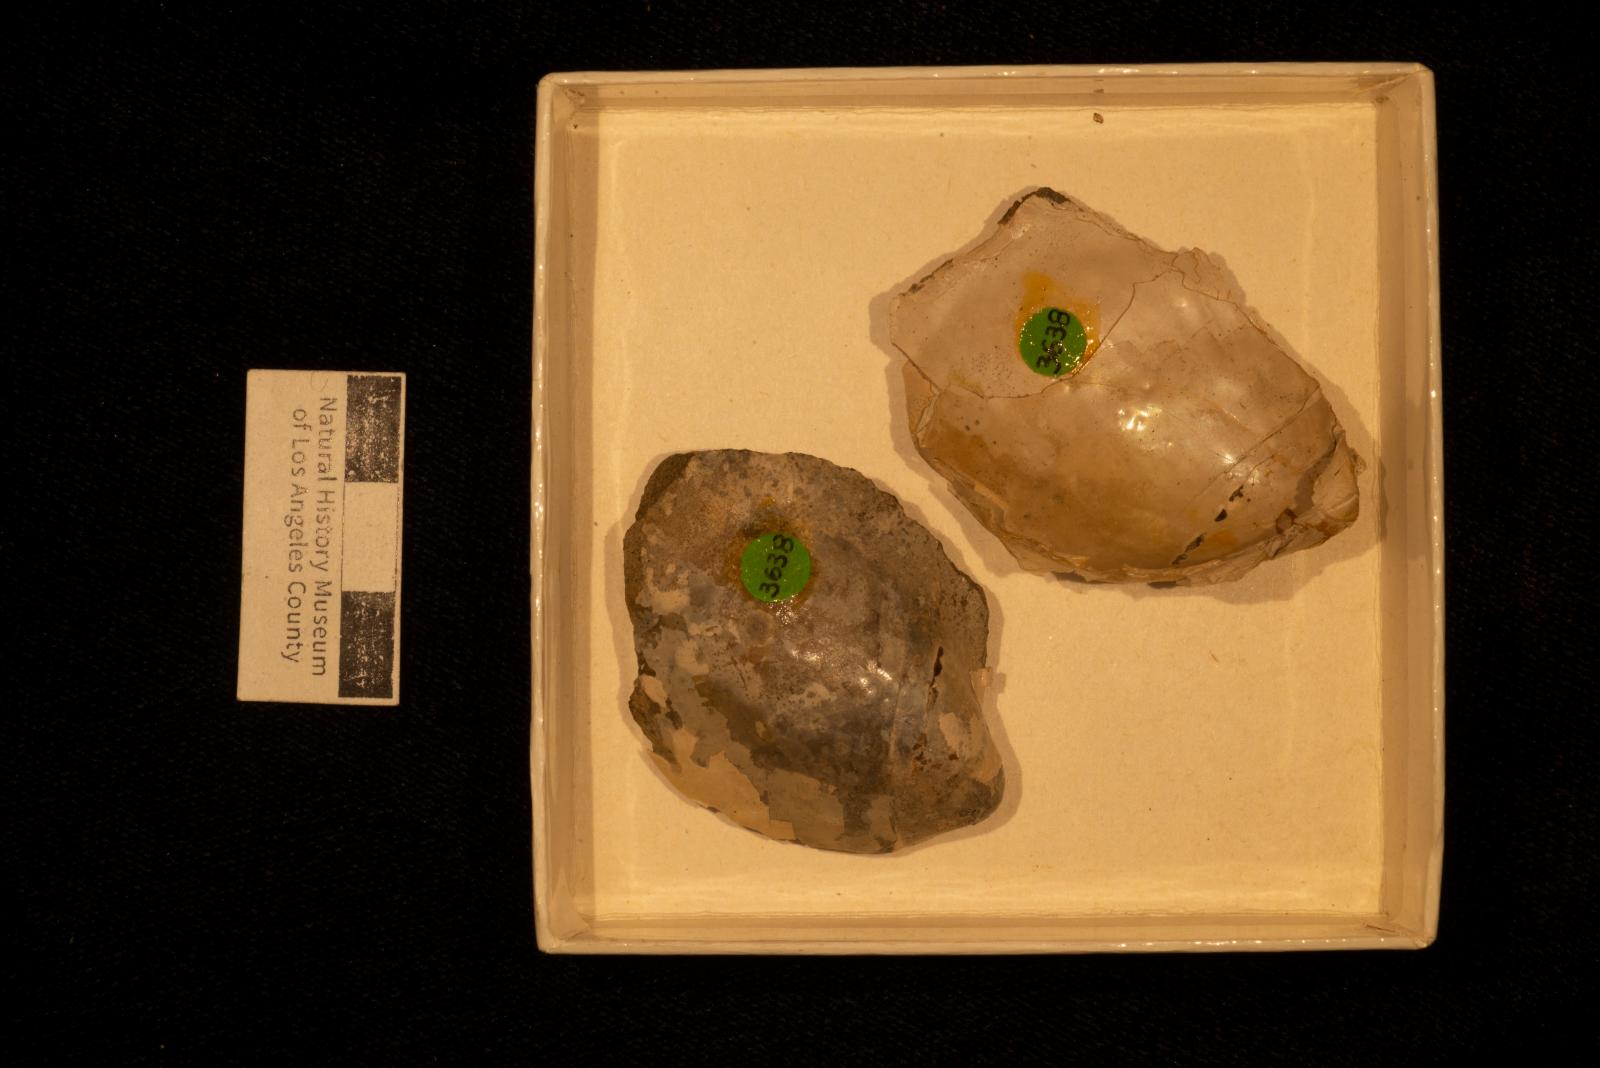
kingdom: Animalia
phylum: Mollusca
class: Bivalvia
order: Myalinida
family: Inoceramidae
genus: Inoceramus
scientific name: Inoceramus
